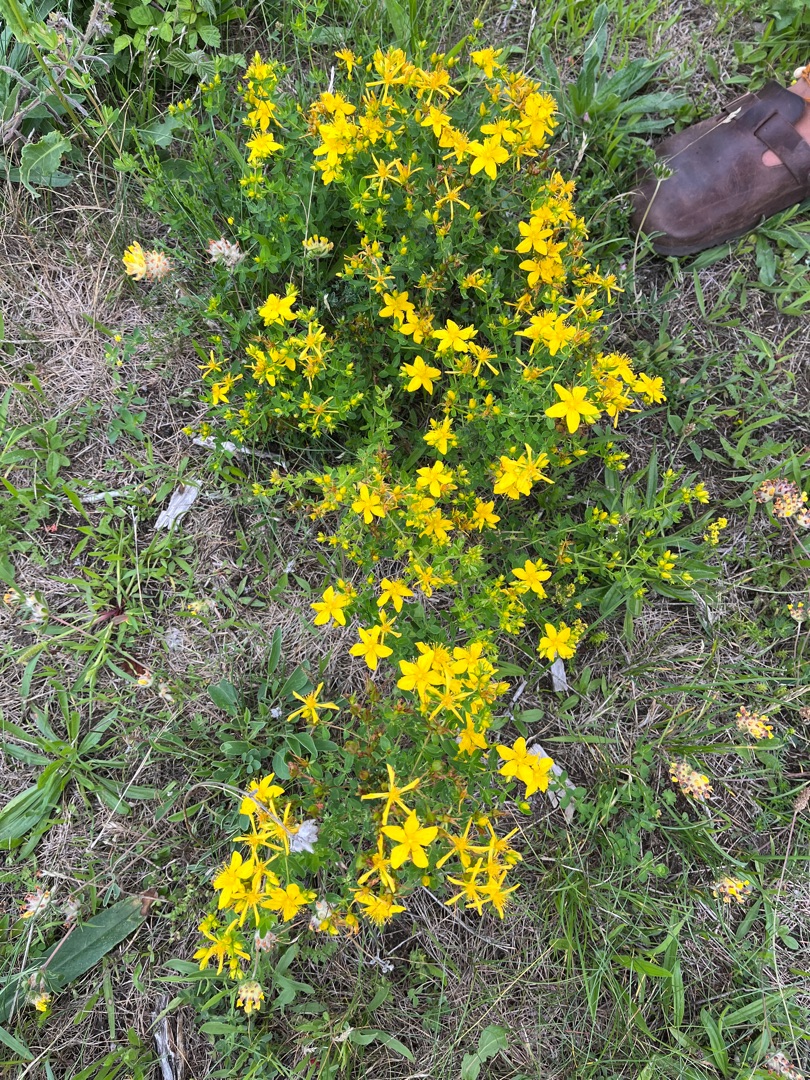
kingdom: Plantae
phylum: Tracheophyta
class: Magnoliopsida
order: Malpighiales
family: Hypericaceae
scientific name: Hypericaceae
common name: Perikonfamilien
